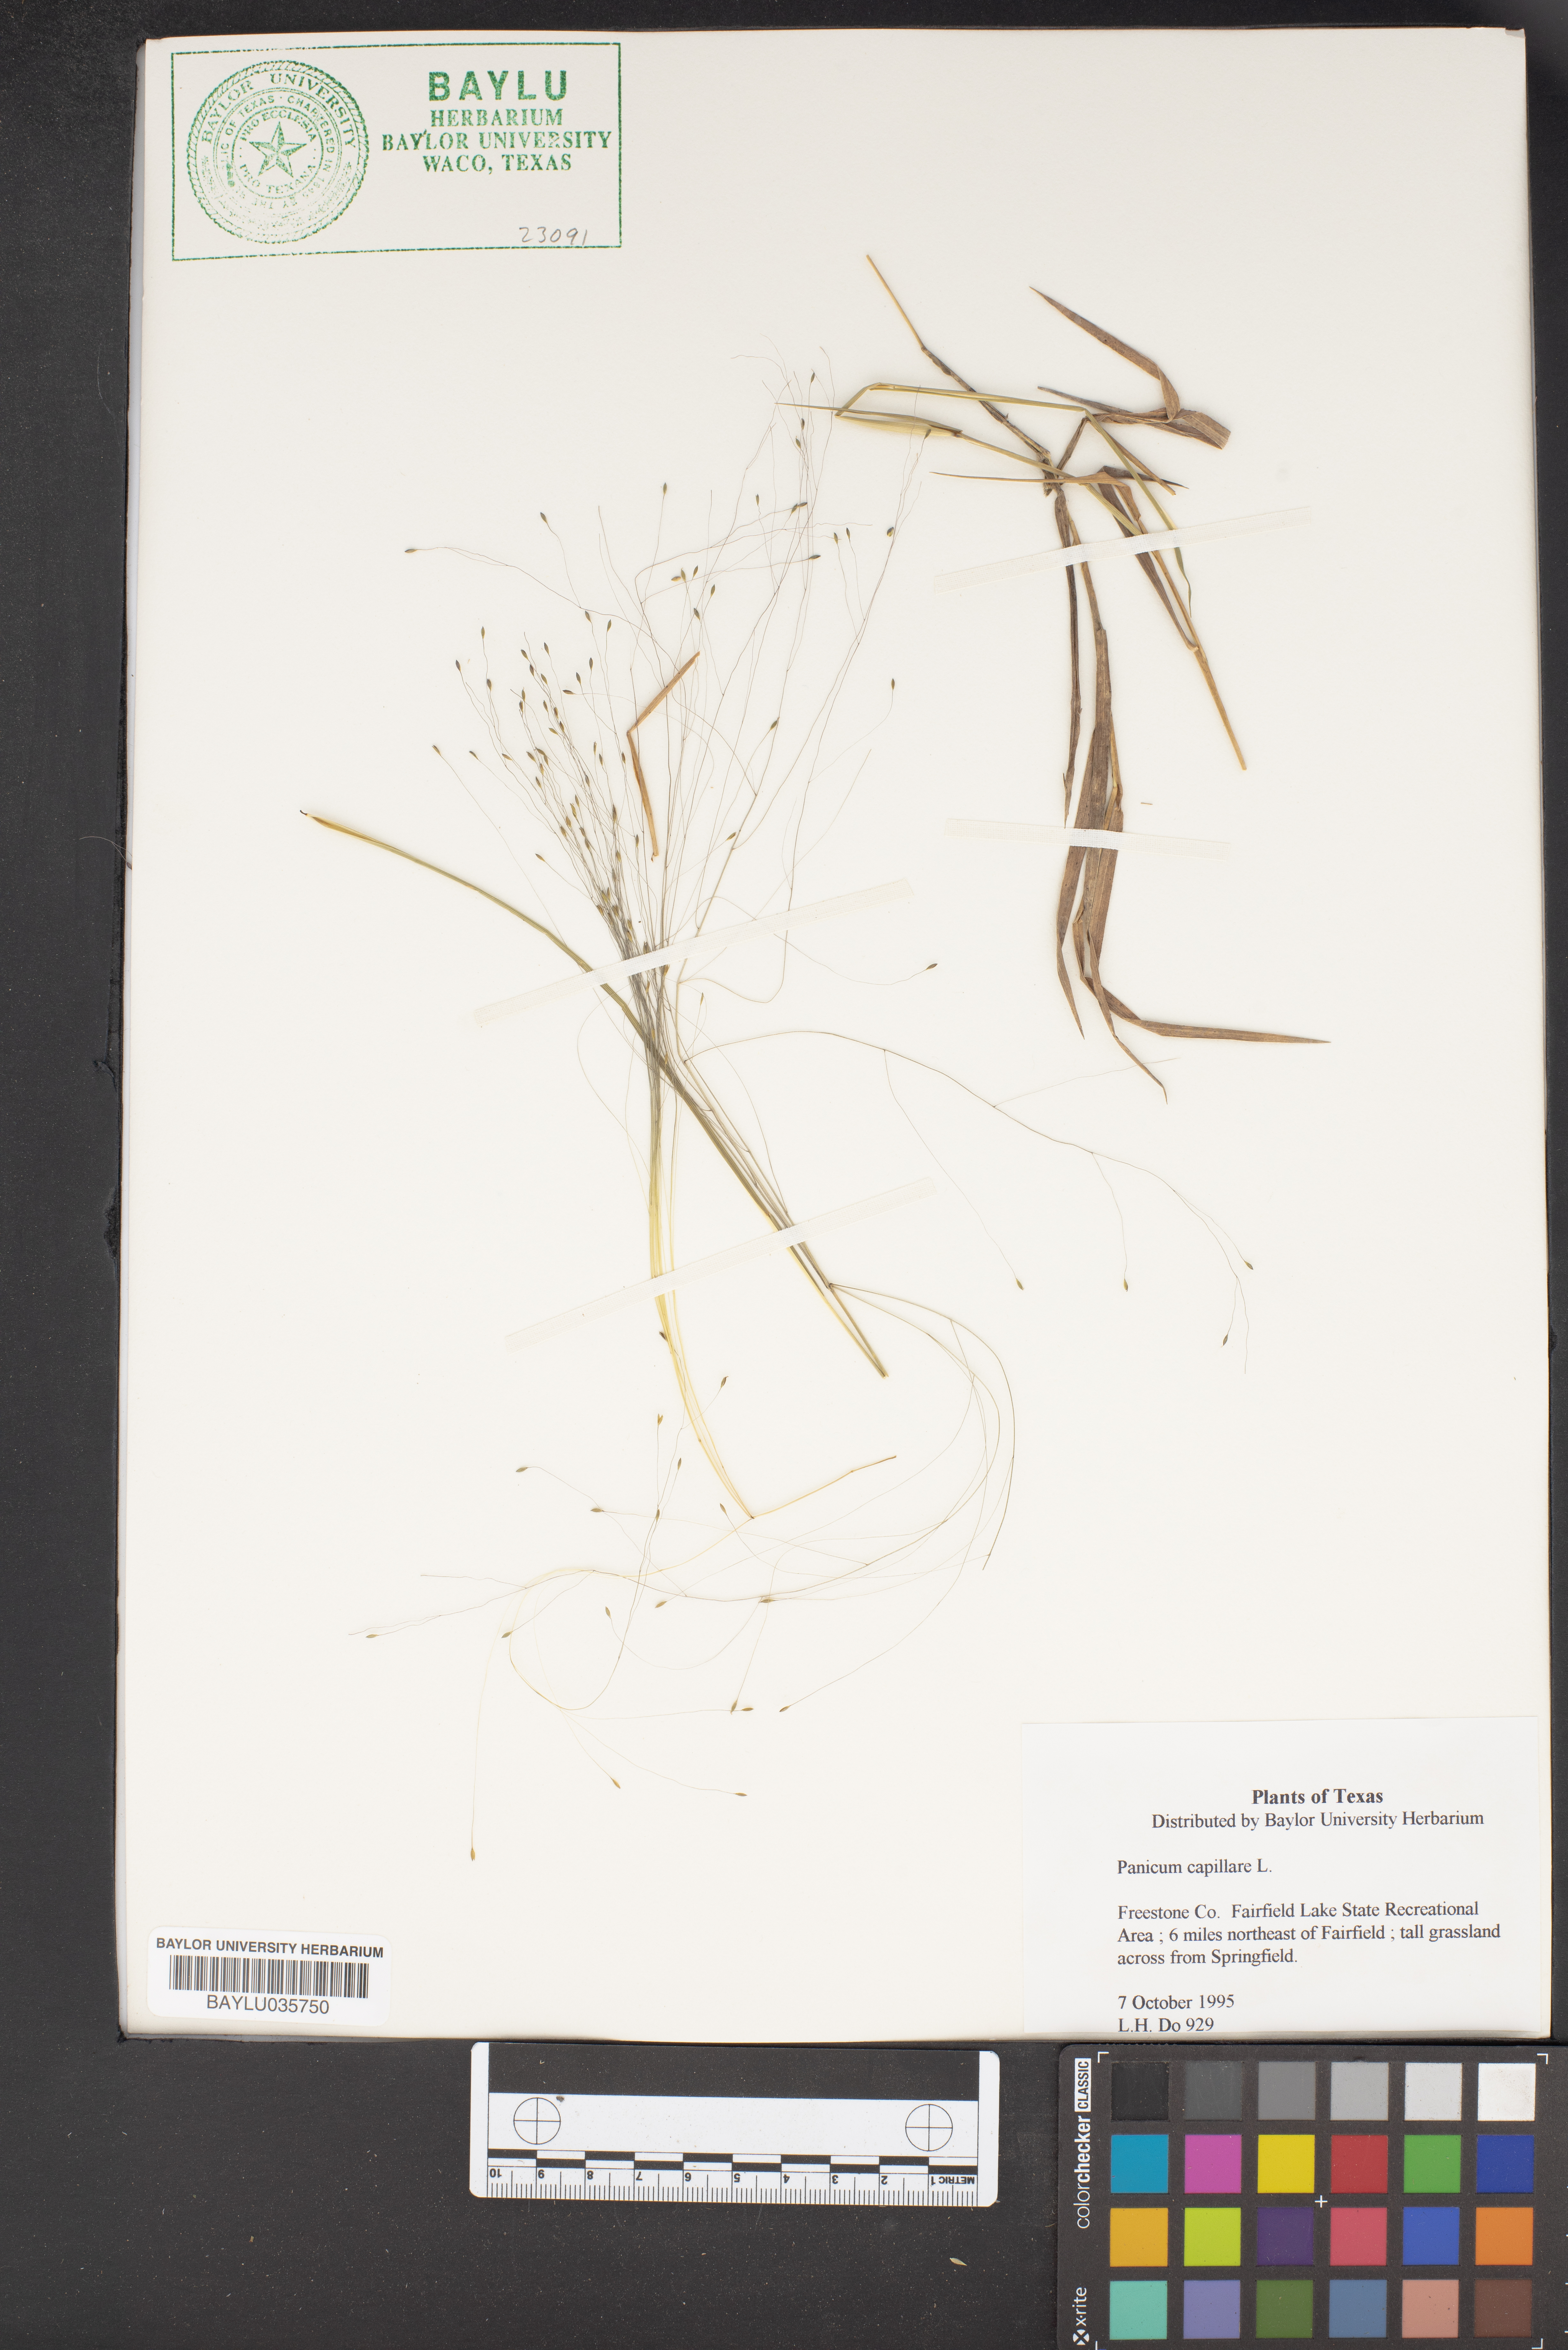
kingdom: Plantae
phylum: Tracheophyta
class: Liliopsida
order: Poales
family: Poaceae
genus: Panicum
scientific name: Panicum capillare
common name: Witch-grass
